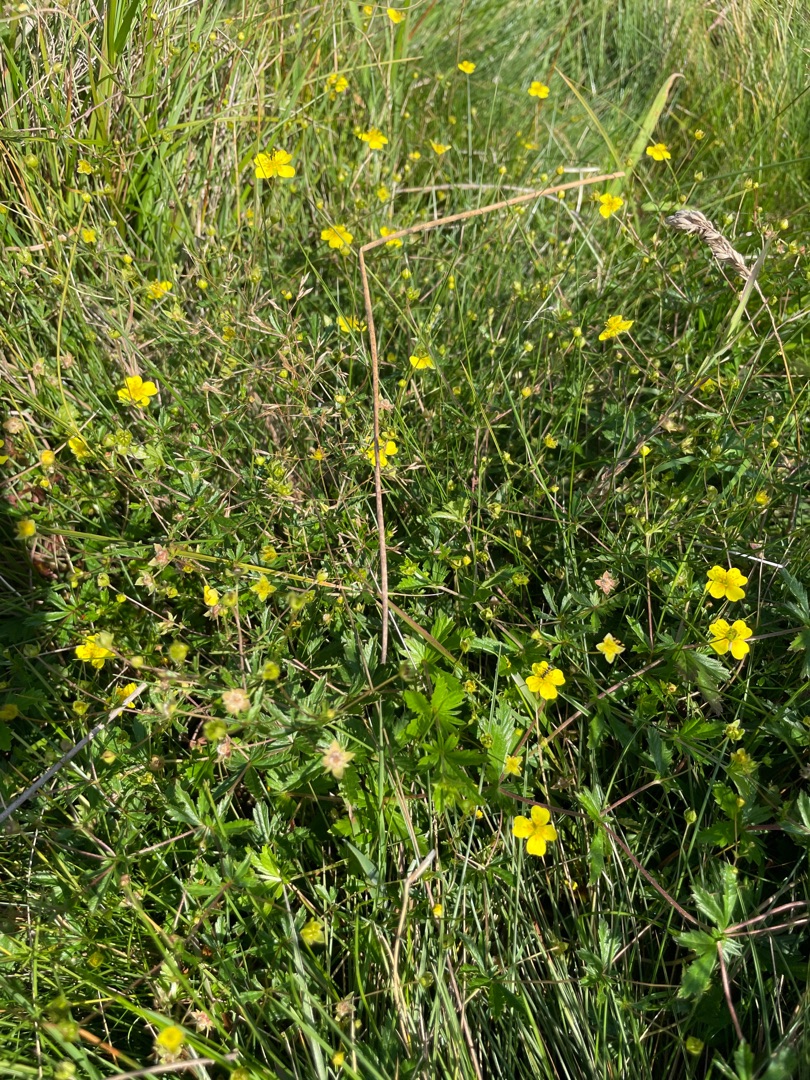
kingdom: Plantae
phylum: Tracheophyta
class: Magnoliopsida
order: Rosales
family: Rosaceae
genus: Potentilla
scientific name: Potentilla erecta
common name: Tormentil
